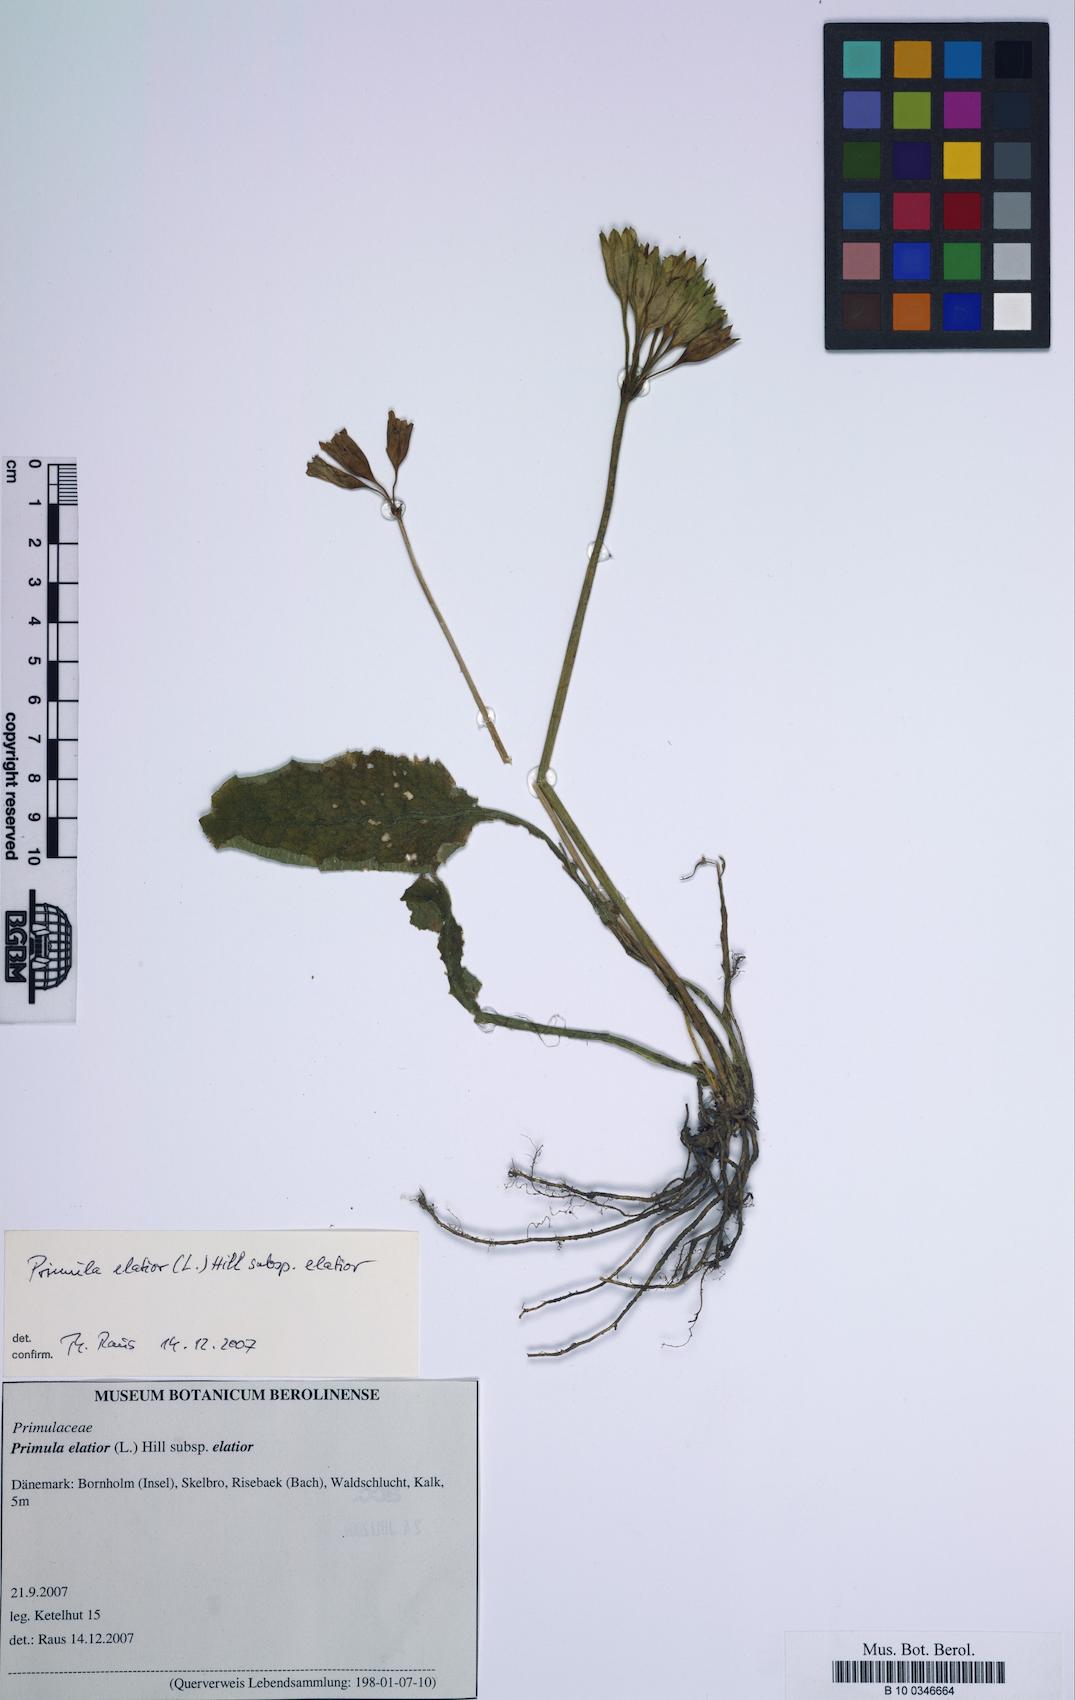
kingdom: Plantae
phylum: Tracheophyta
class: Magnoliopsida
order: Ericales
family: Primulaceae
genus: Primula
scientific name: Primula elatior
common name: Oxlip
